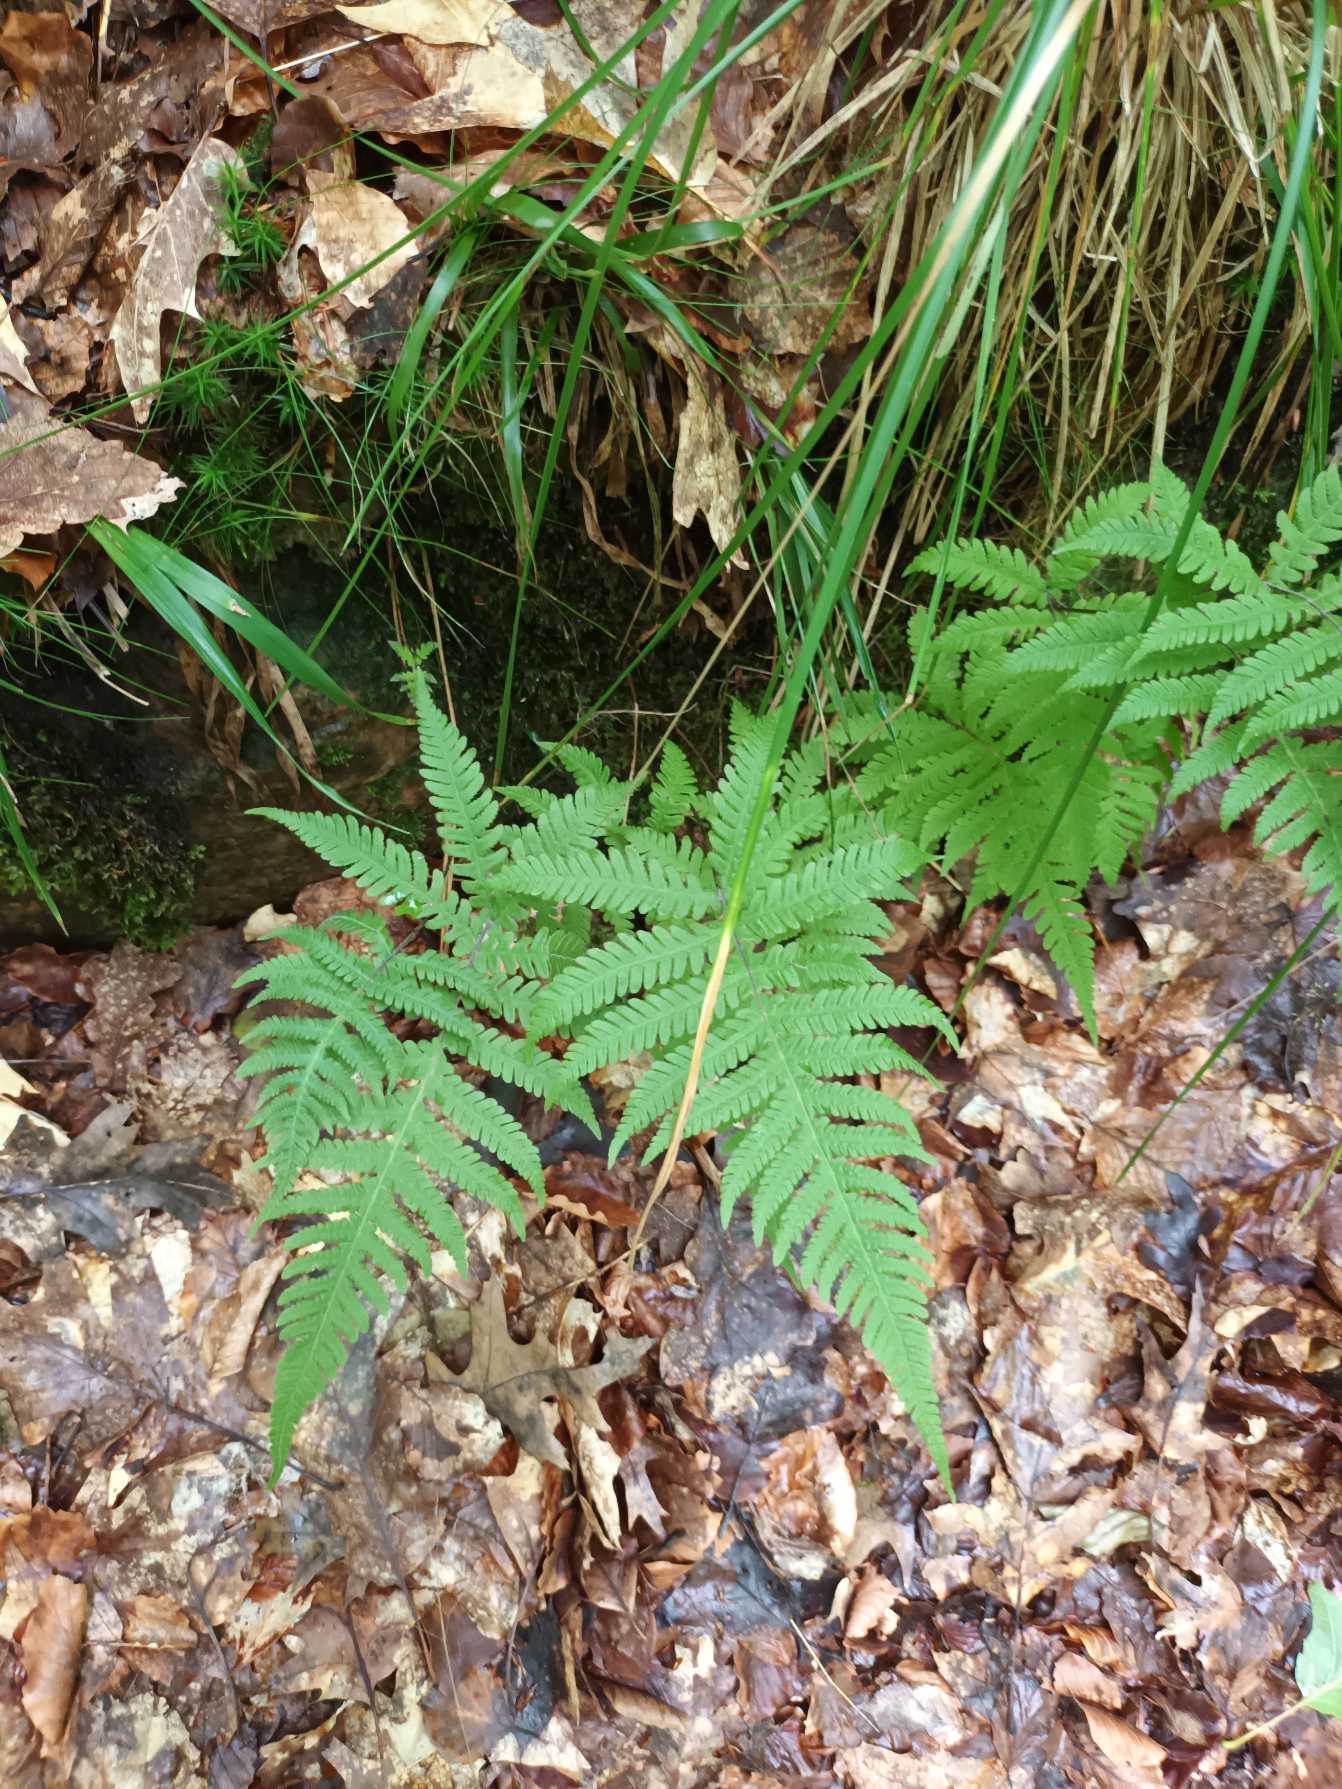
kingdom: Plantae
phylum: Tracheophyta
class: Polypodiopsida
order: Polypodiales
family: Thelypteridaceae
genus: Phegopteris
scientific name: Phegopteris connectilis
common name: Dunet egebregne
